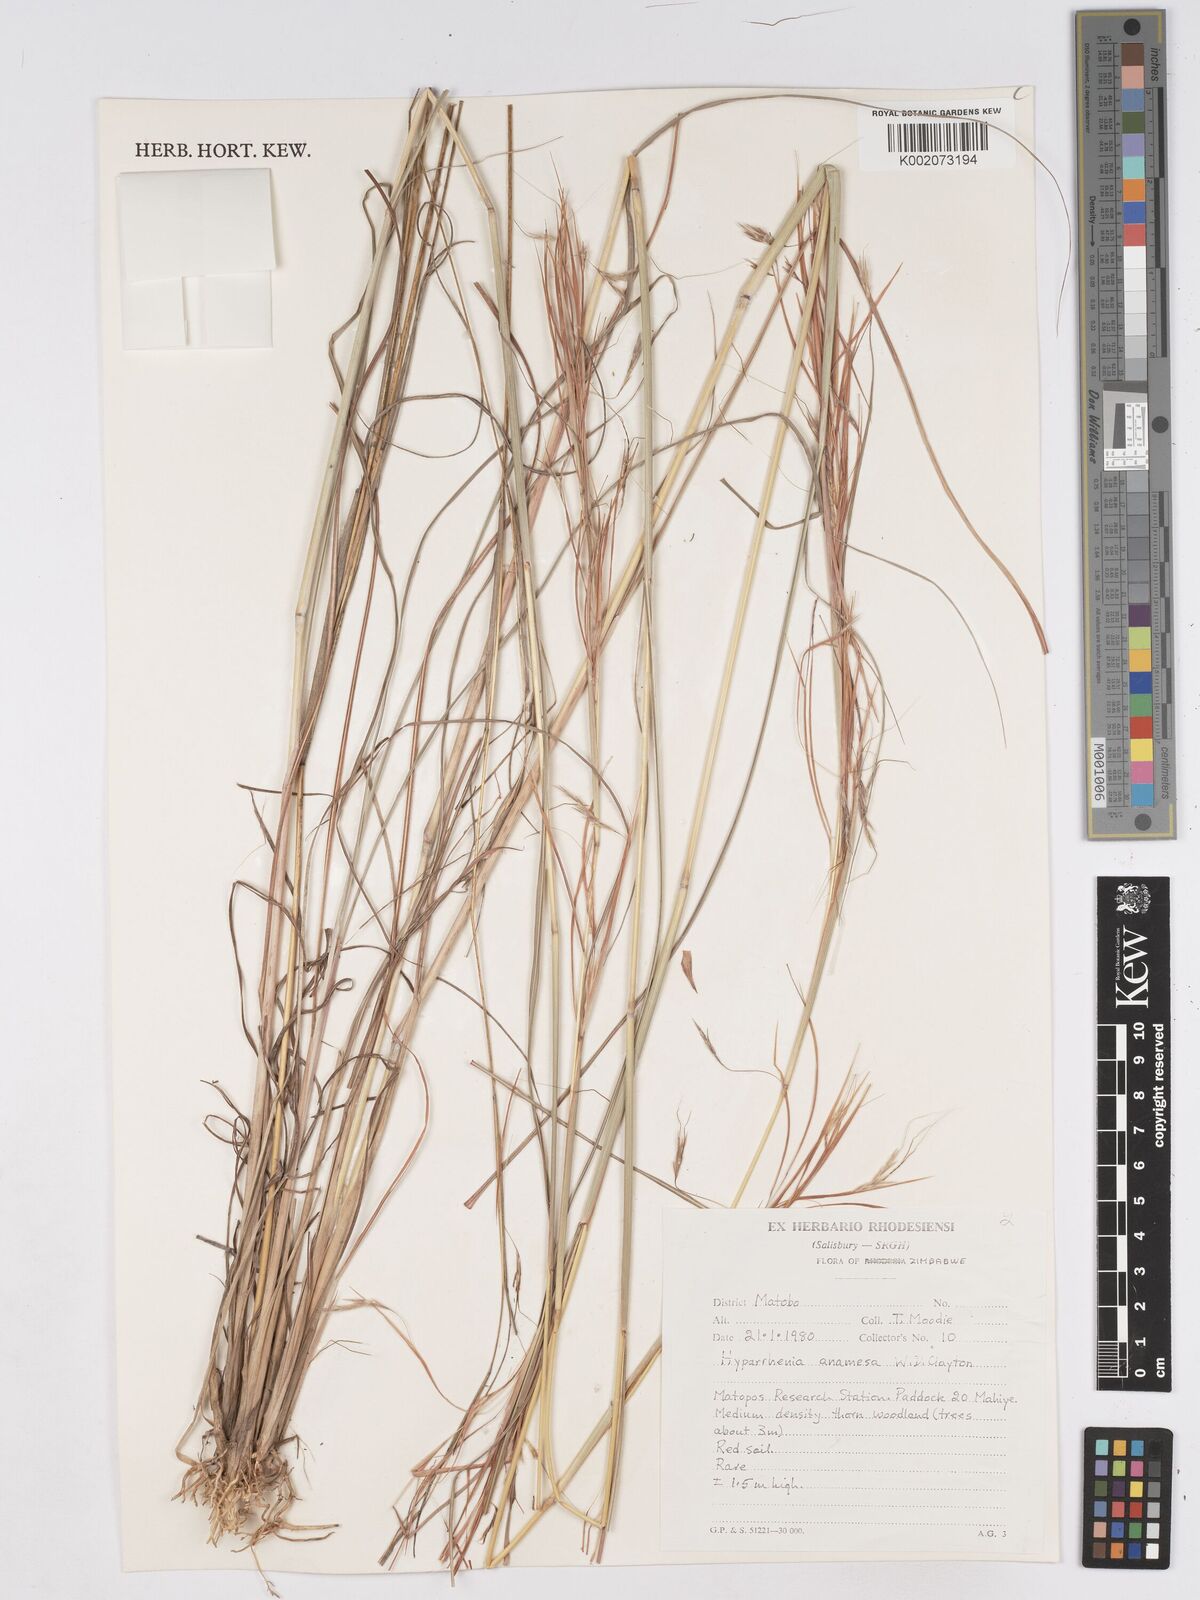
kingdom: Plantae
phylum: Tracheophyta
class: Liliopsida
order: Poales
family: Poaceae
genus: Hyparrhenia
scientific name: Hyparrhenia anamesa
